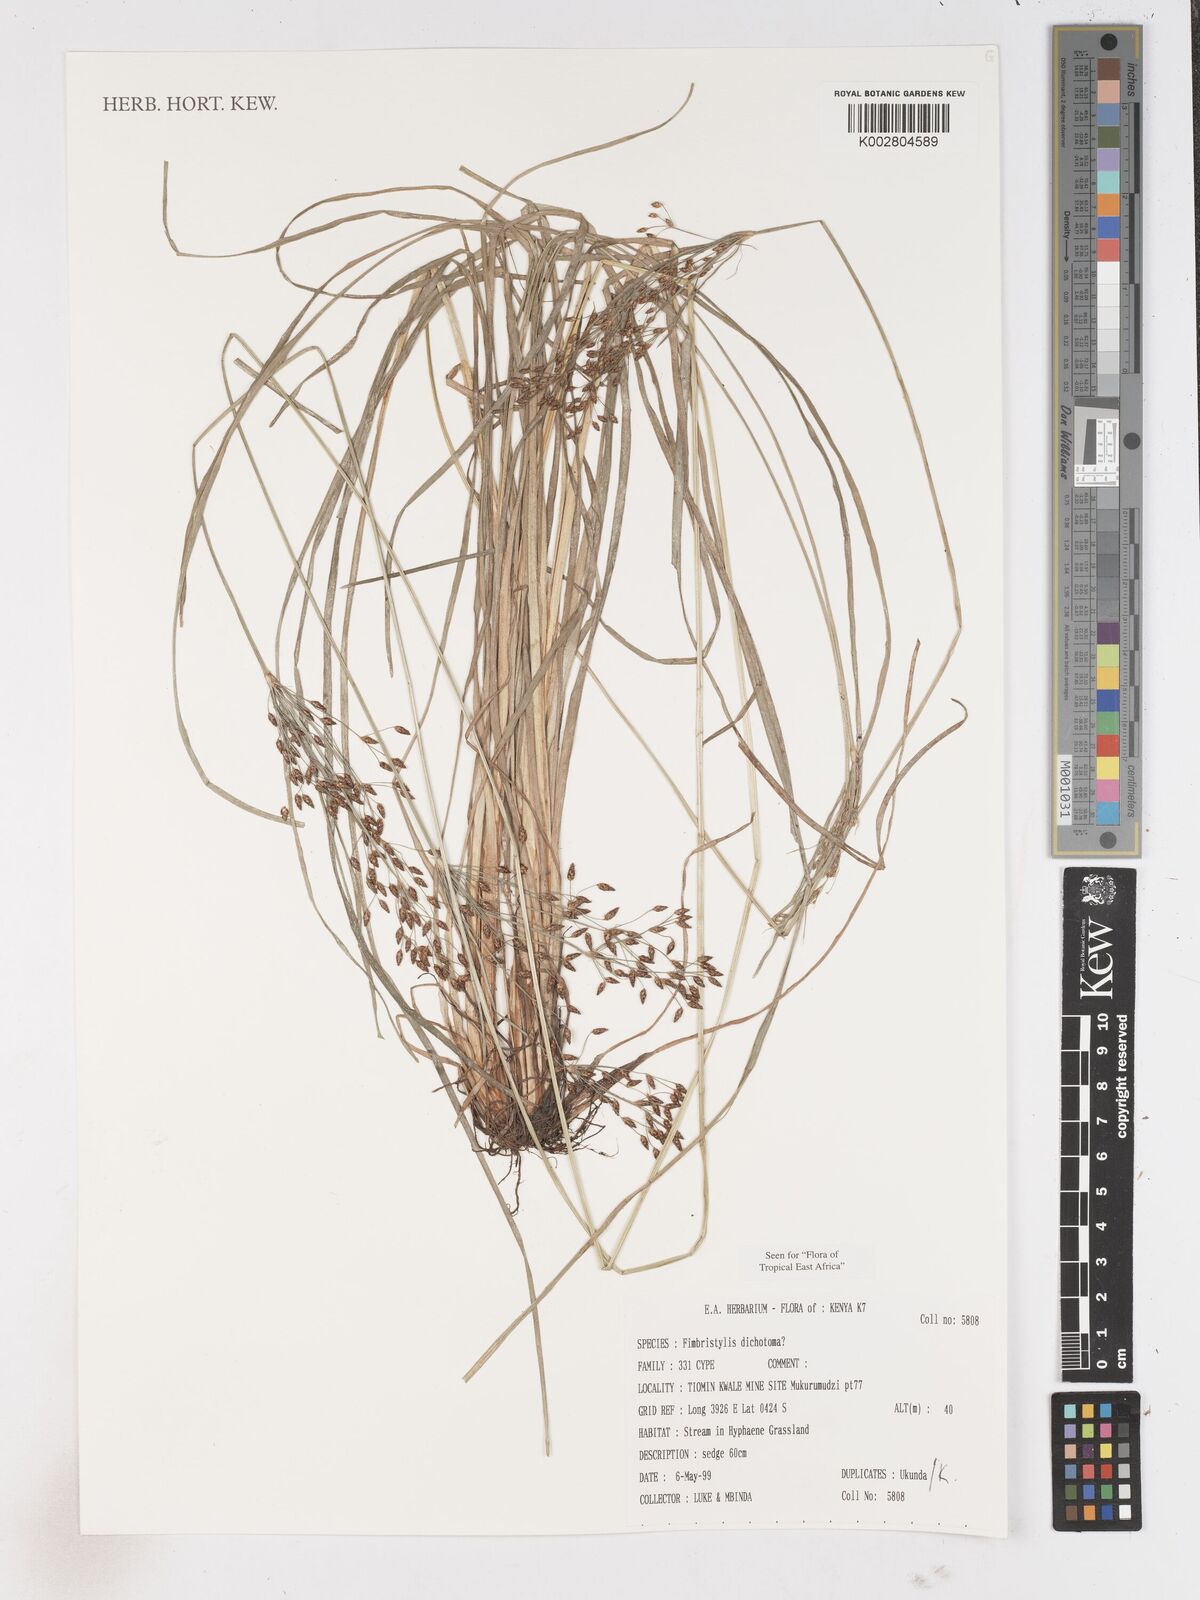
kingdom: Plantae
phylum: Tracheophyta
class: Liliopsida
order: Poales
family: Cyperaceae
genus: Fimbristylis
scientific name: Fimbristylis dichotoma
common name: Forked fimbry
